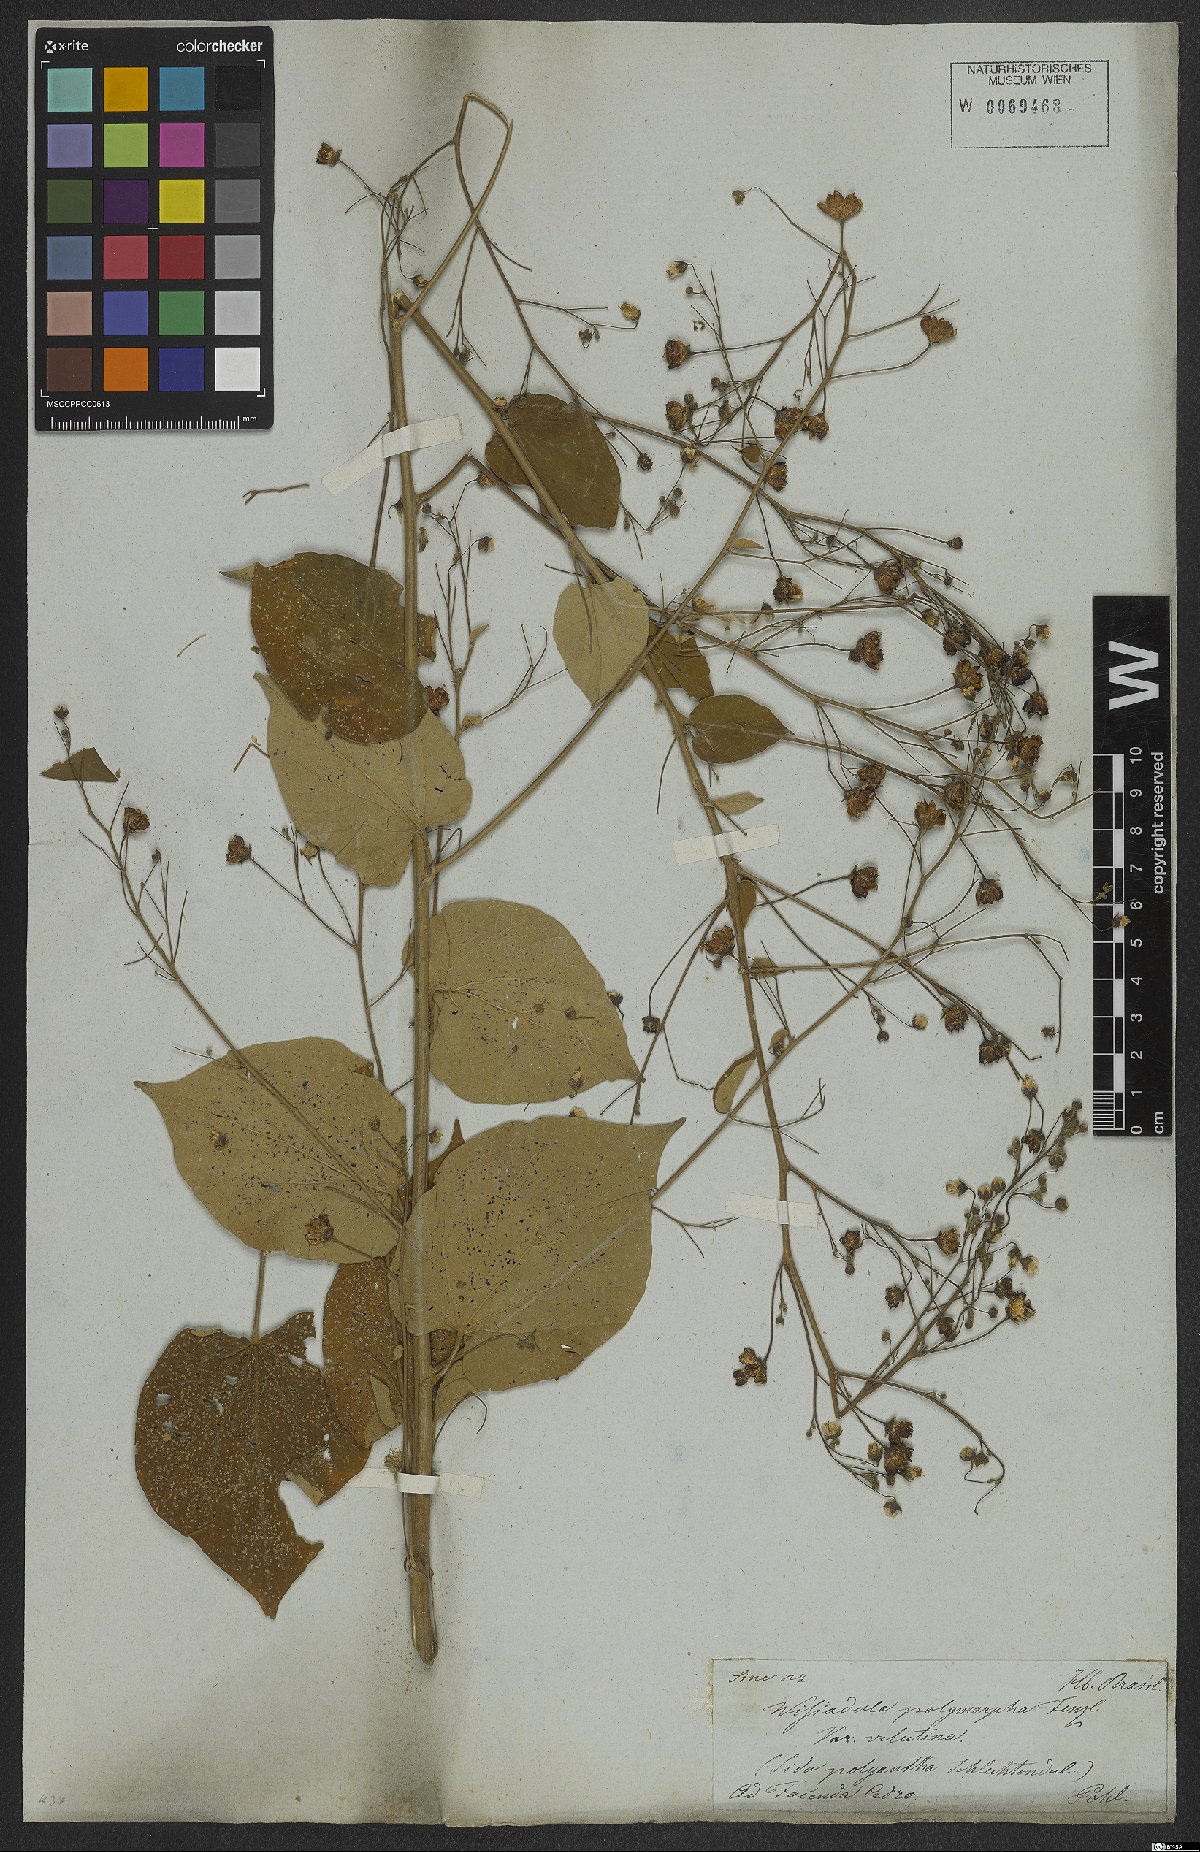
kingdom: Plantae
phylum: Tracheophyta
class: Magnoliopsida
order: Malvales
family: Malvaceae
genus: Wissadula
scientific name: Wissadula periplocifolia
